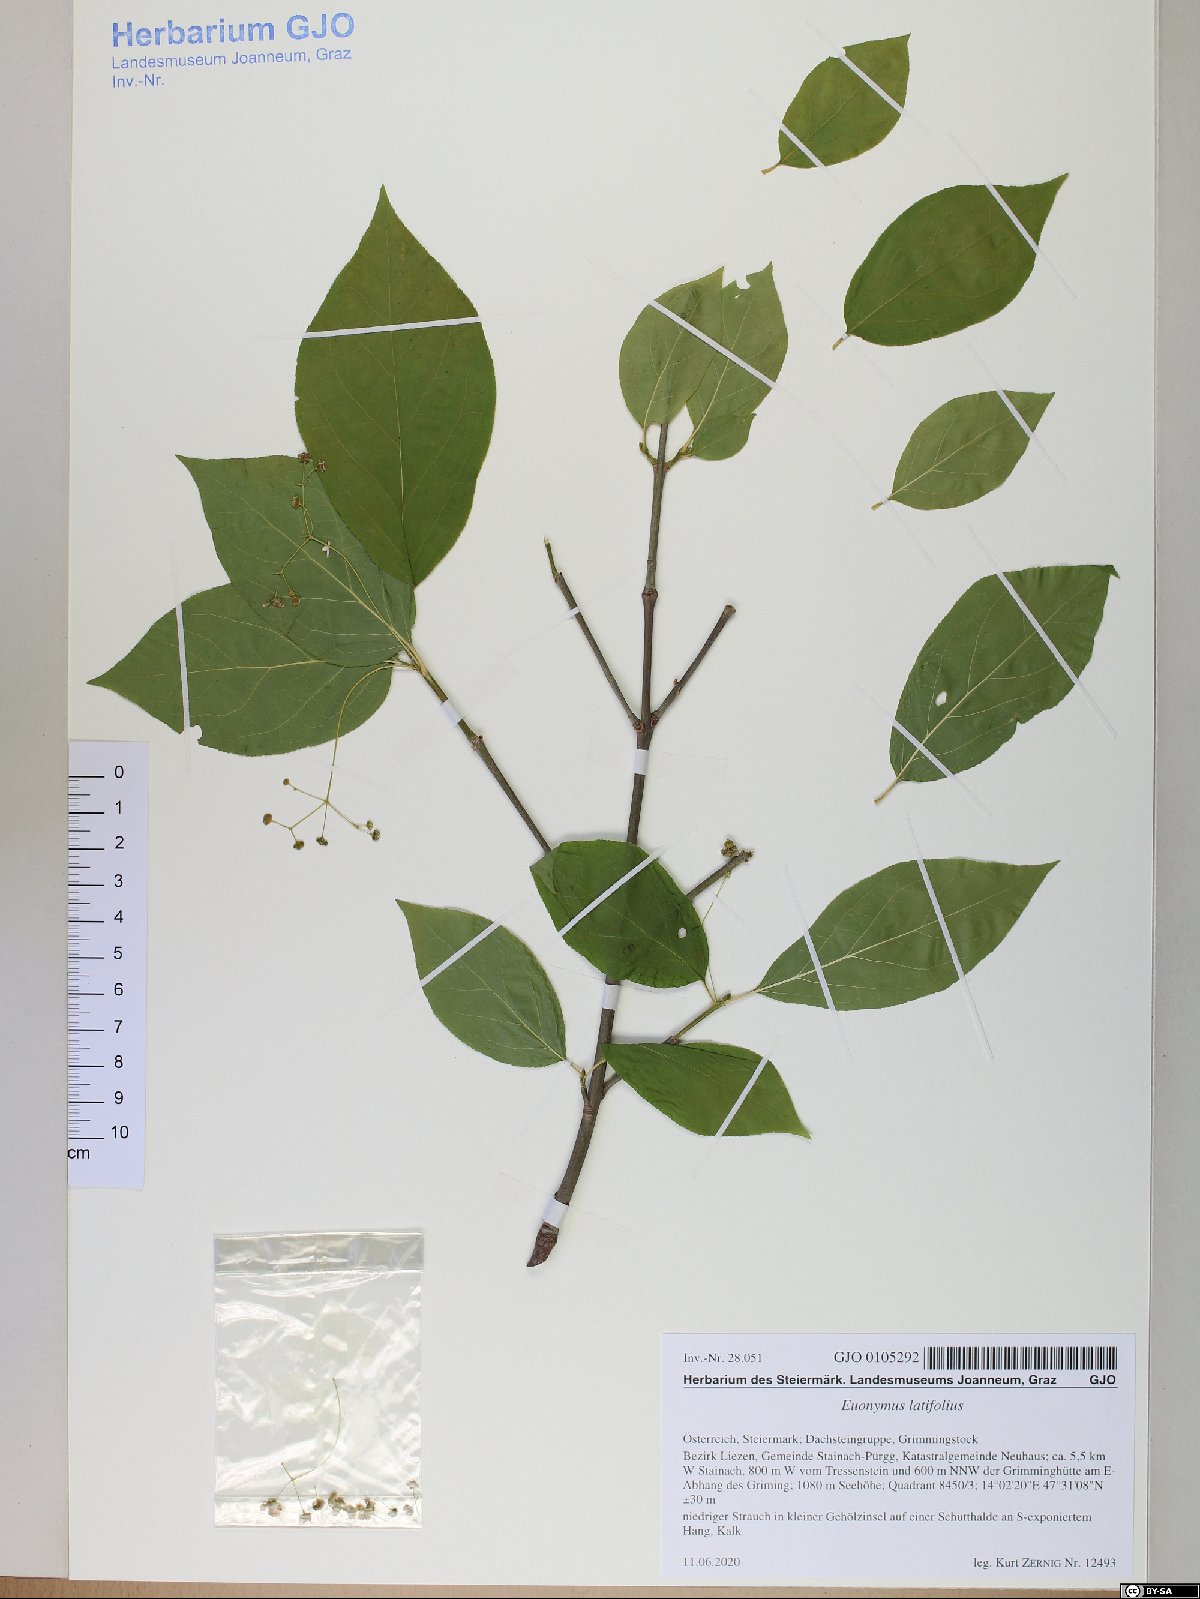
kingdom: Plantae
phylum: Tracheophyta
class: Magnoliopsida
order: Celastrales
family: Celastraceae
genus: Euonymus
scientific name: Euonymus latifolius
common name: Large-leaved spindle
